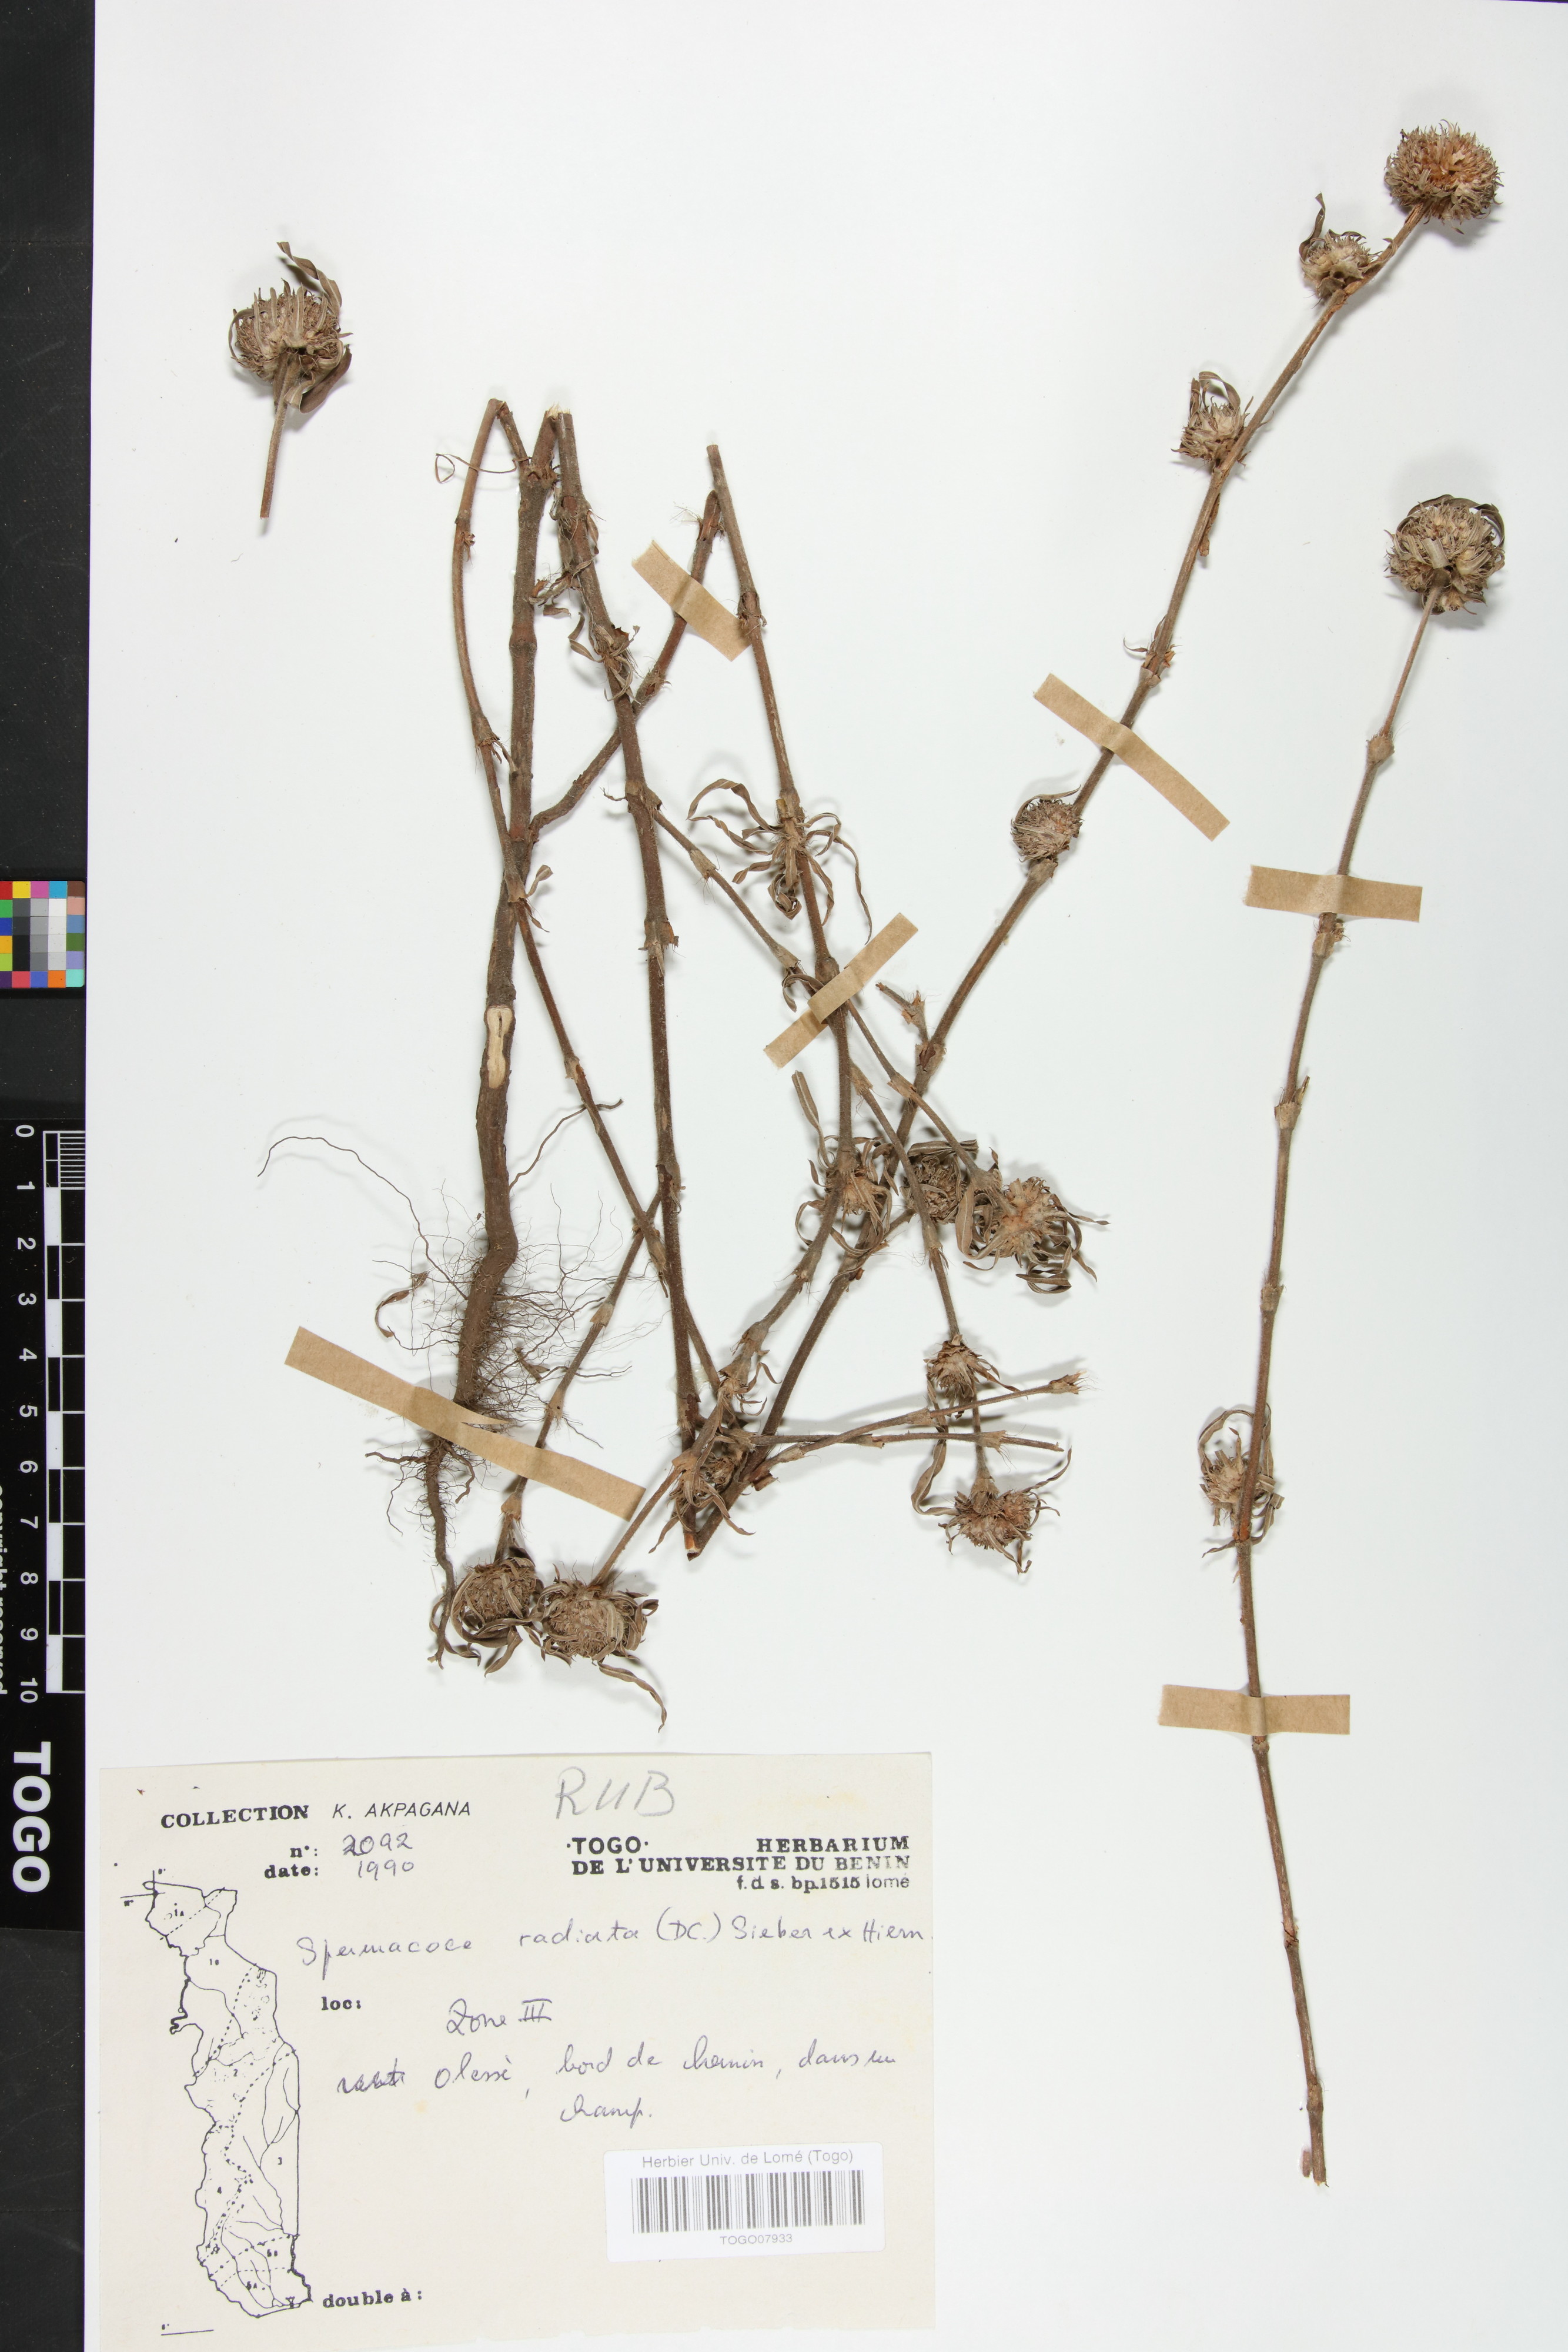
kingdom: Plantae
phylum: Tracheophyta
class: Magnoliopsida
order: Gentianales
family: Rubiaceae
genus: Spermacoce
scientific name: Spermacoce radiata
